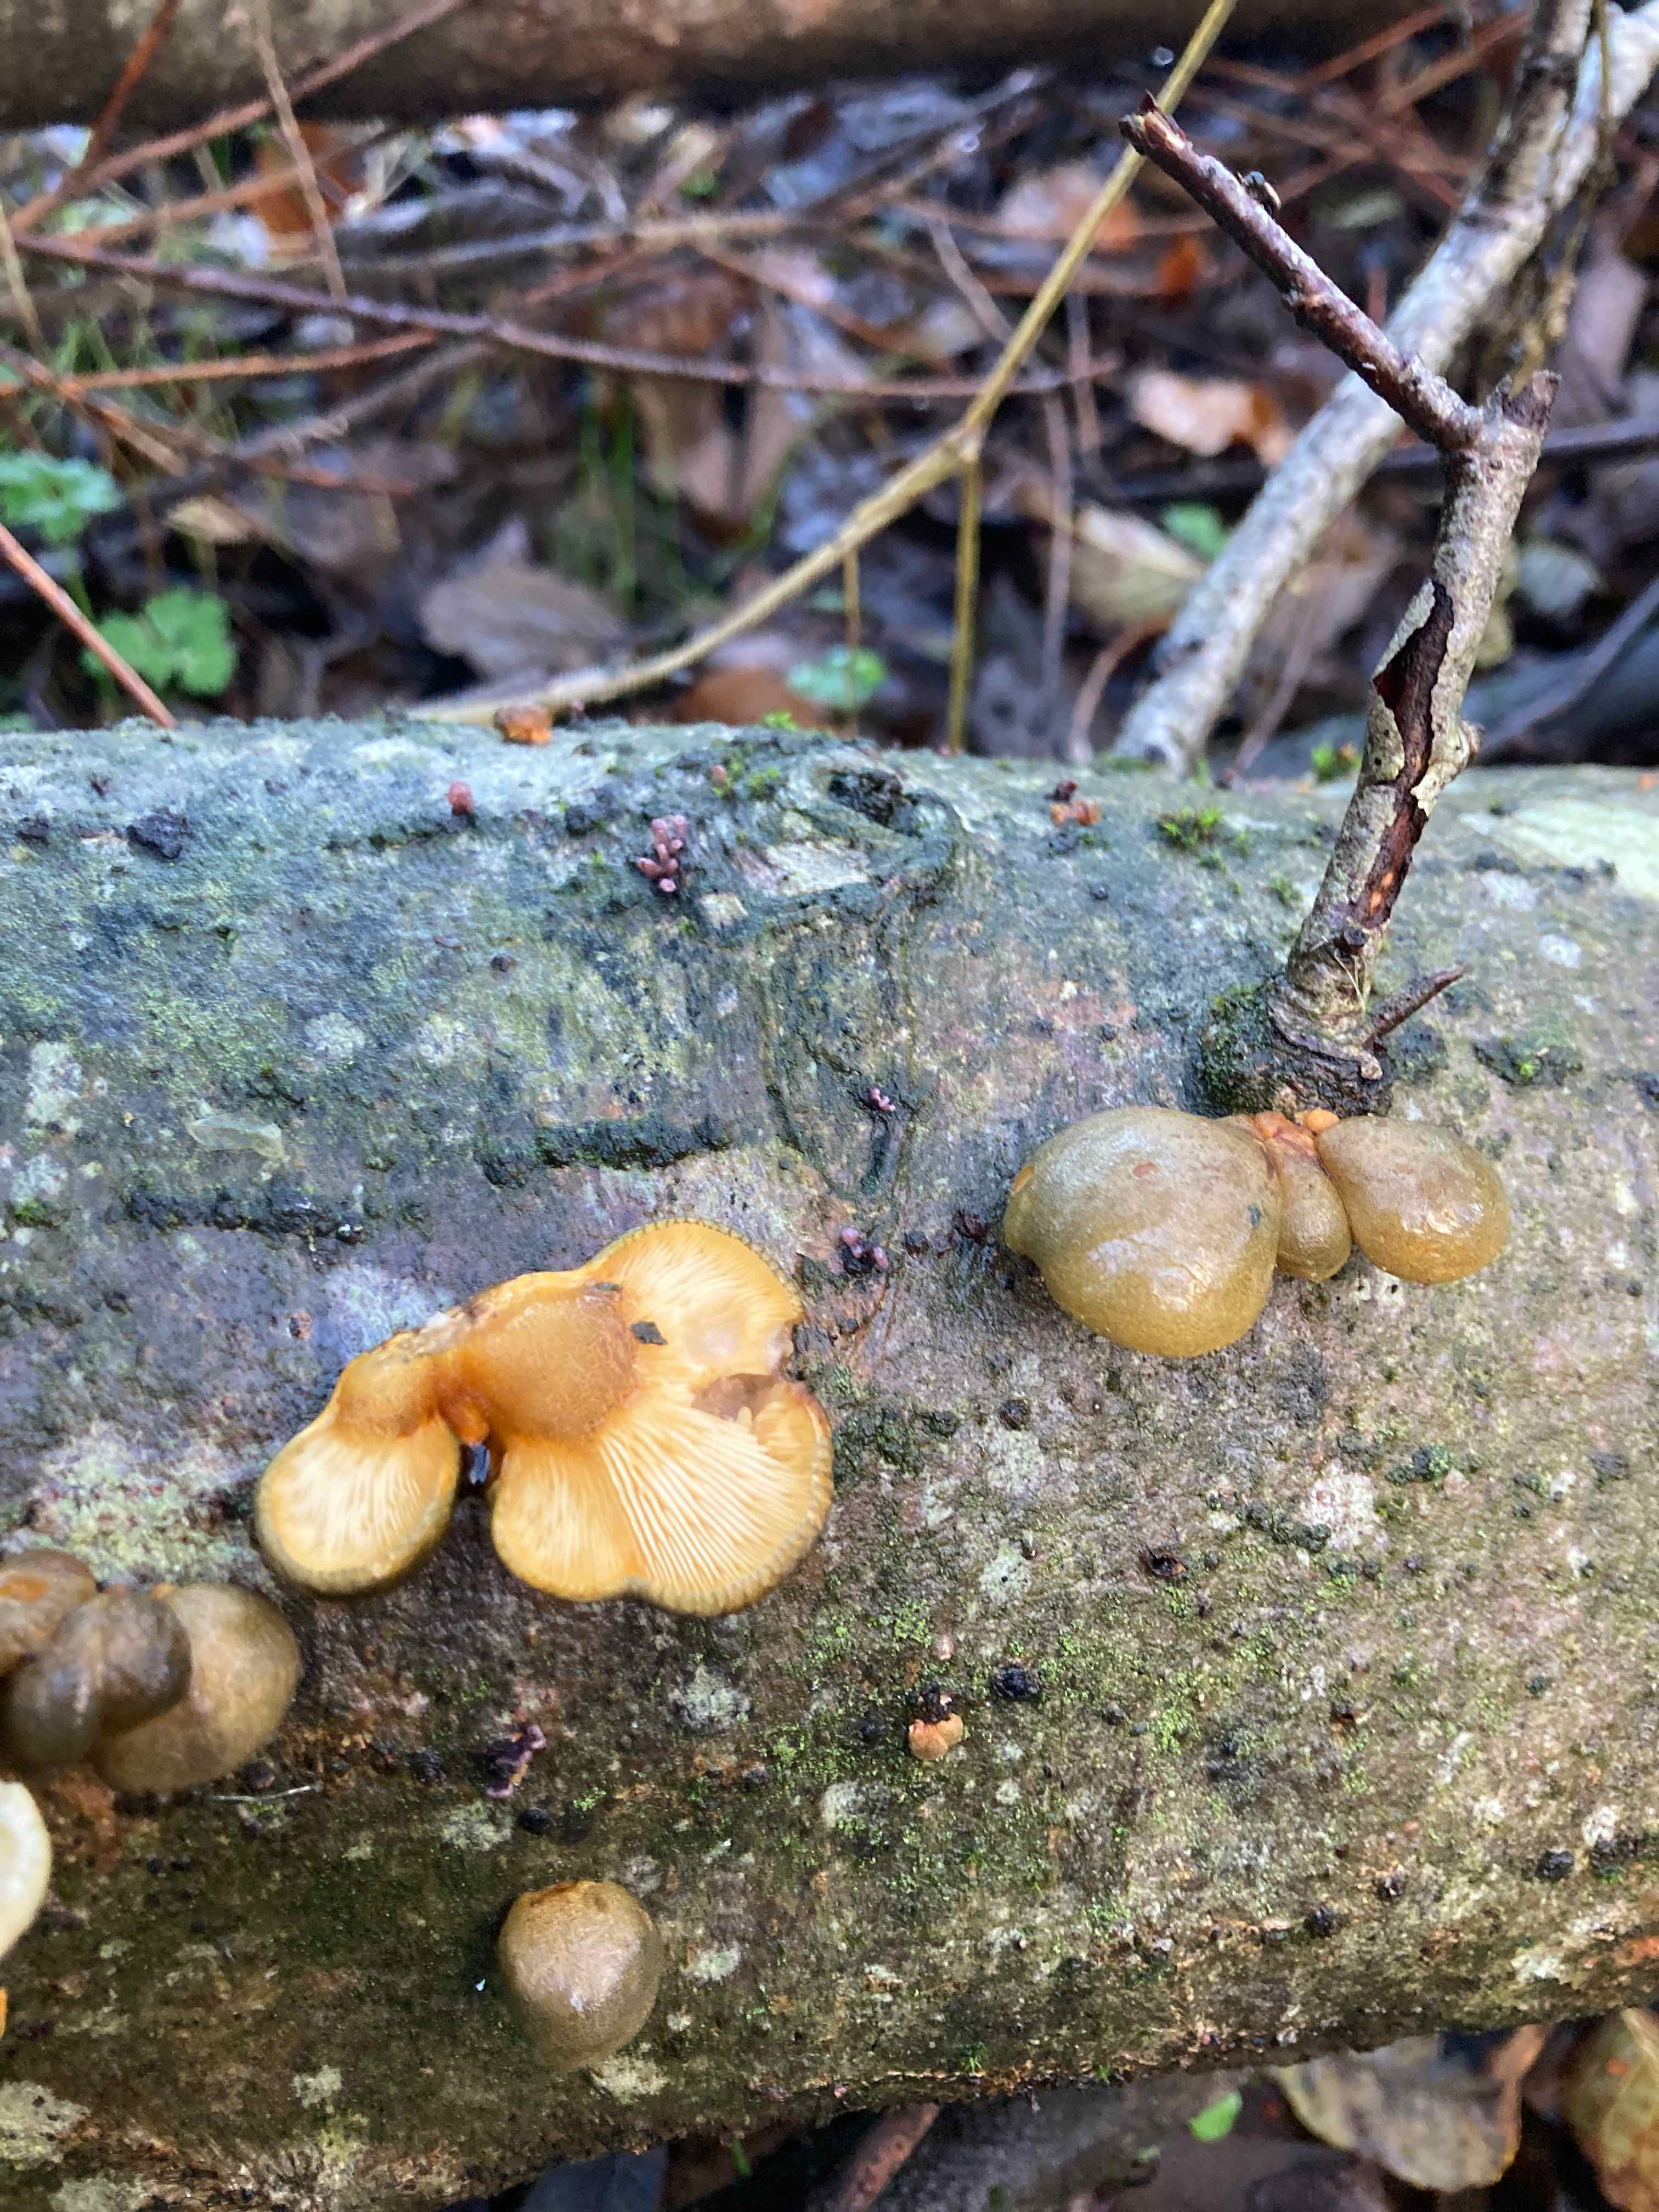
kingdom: Fungi
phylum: Basidiomycota
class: Agaricomycetes
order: Agaricales
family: Sarcomyxaceae
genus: Sarcomyxa
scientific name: Sarcomyxa serotina
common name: gummihat
